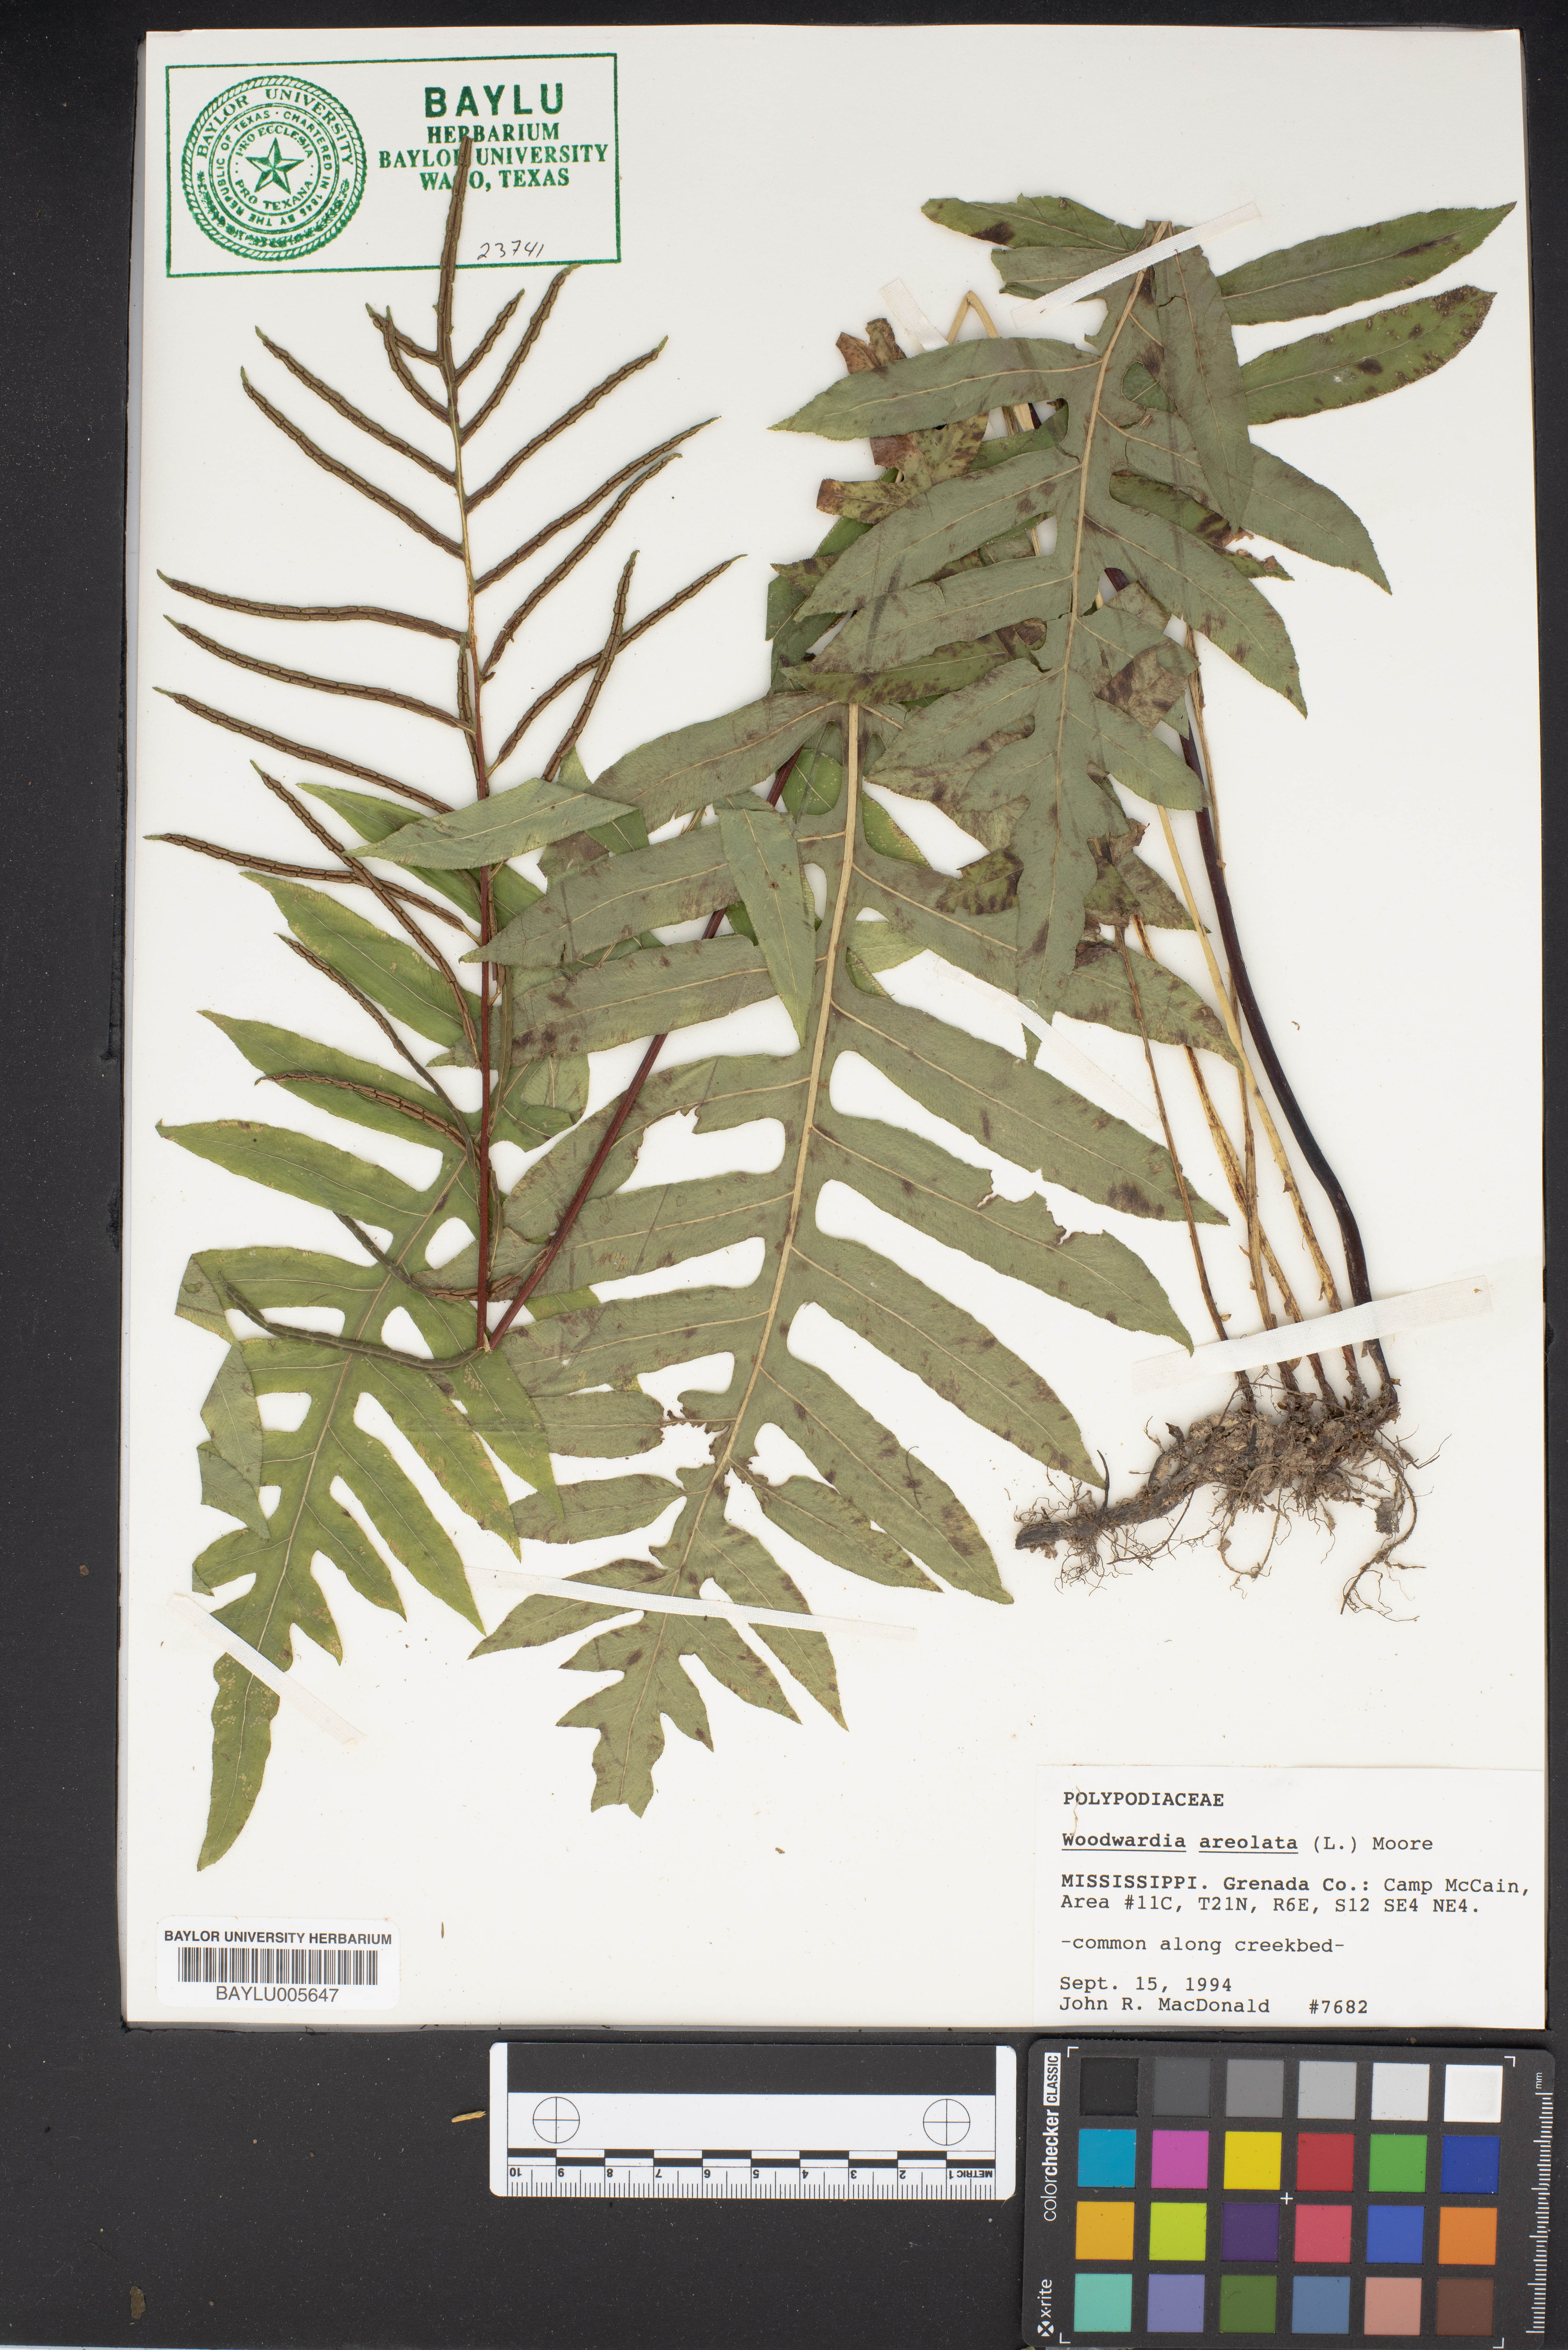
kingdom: Plantae
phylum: Tracheophyta
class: Polypodiopsida
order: Polypodiales
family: Blechnaceae
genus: Lorinseria
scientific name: Lorinseria areolata
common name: Dwarf chain fern
